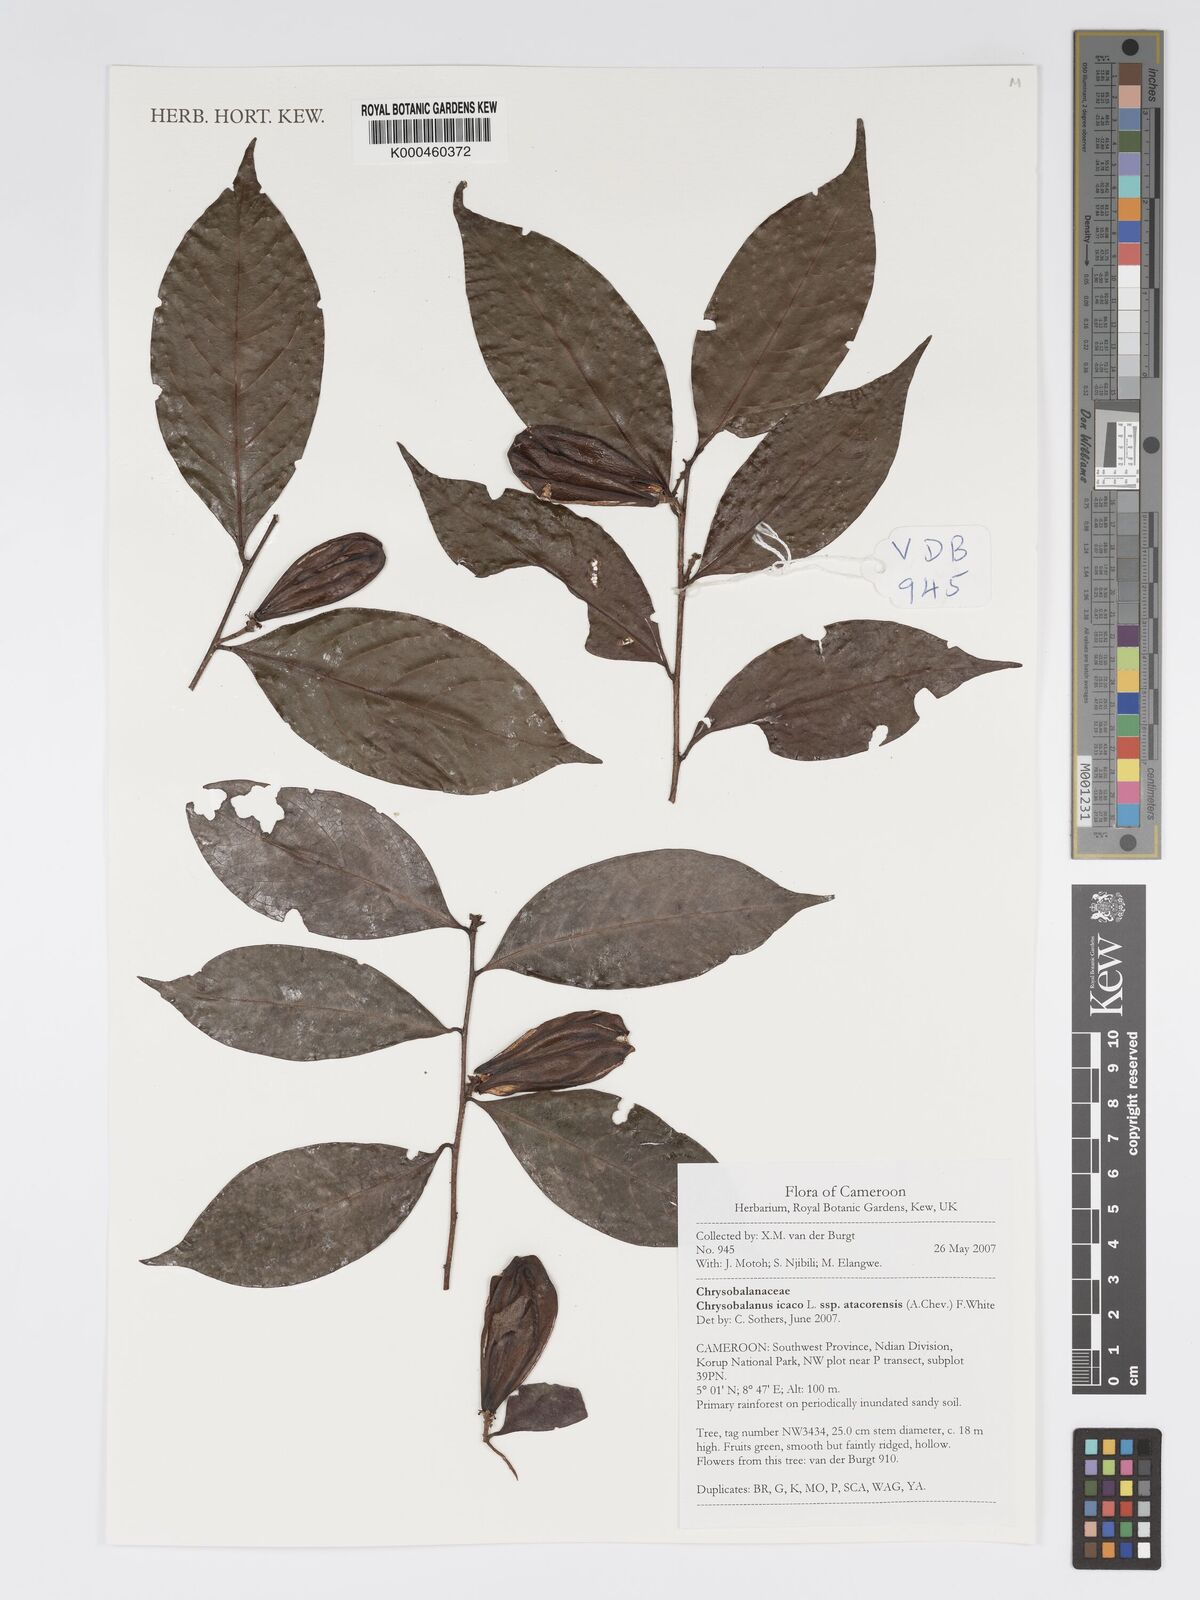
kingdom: Plantae
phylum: Tracheophyta
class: Magnoliopsida
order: Malpighiales
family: Chrysobalanaceae
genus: Chrysobalanus
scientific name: Chrysobalanus icaco
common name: Coco plum
